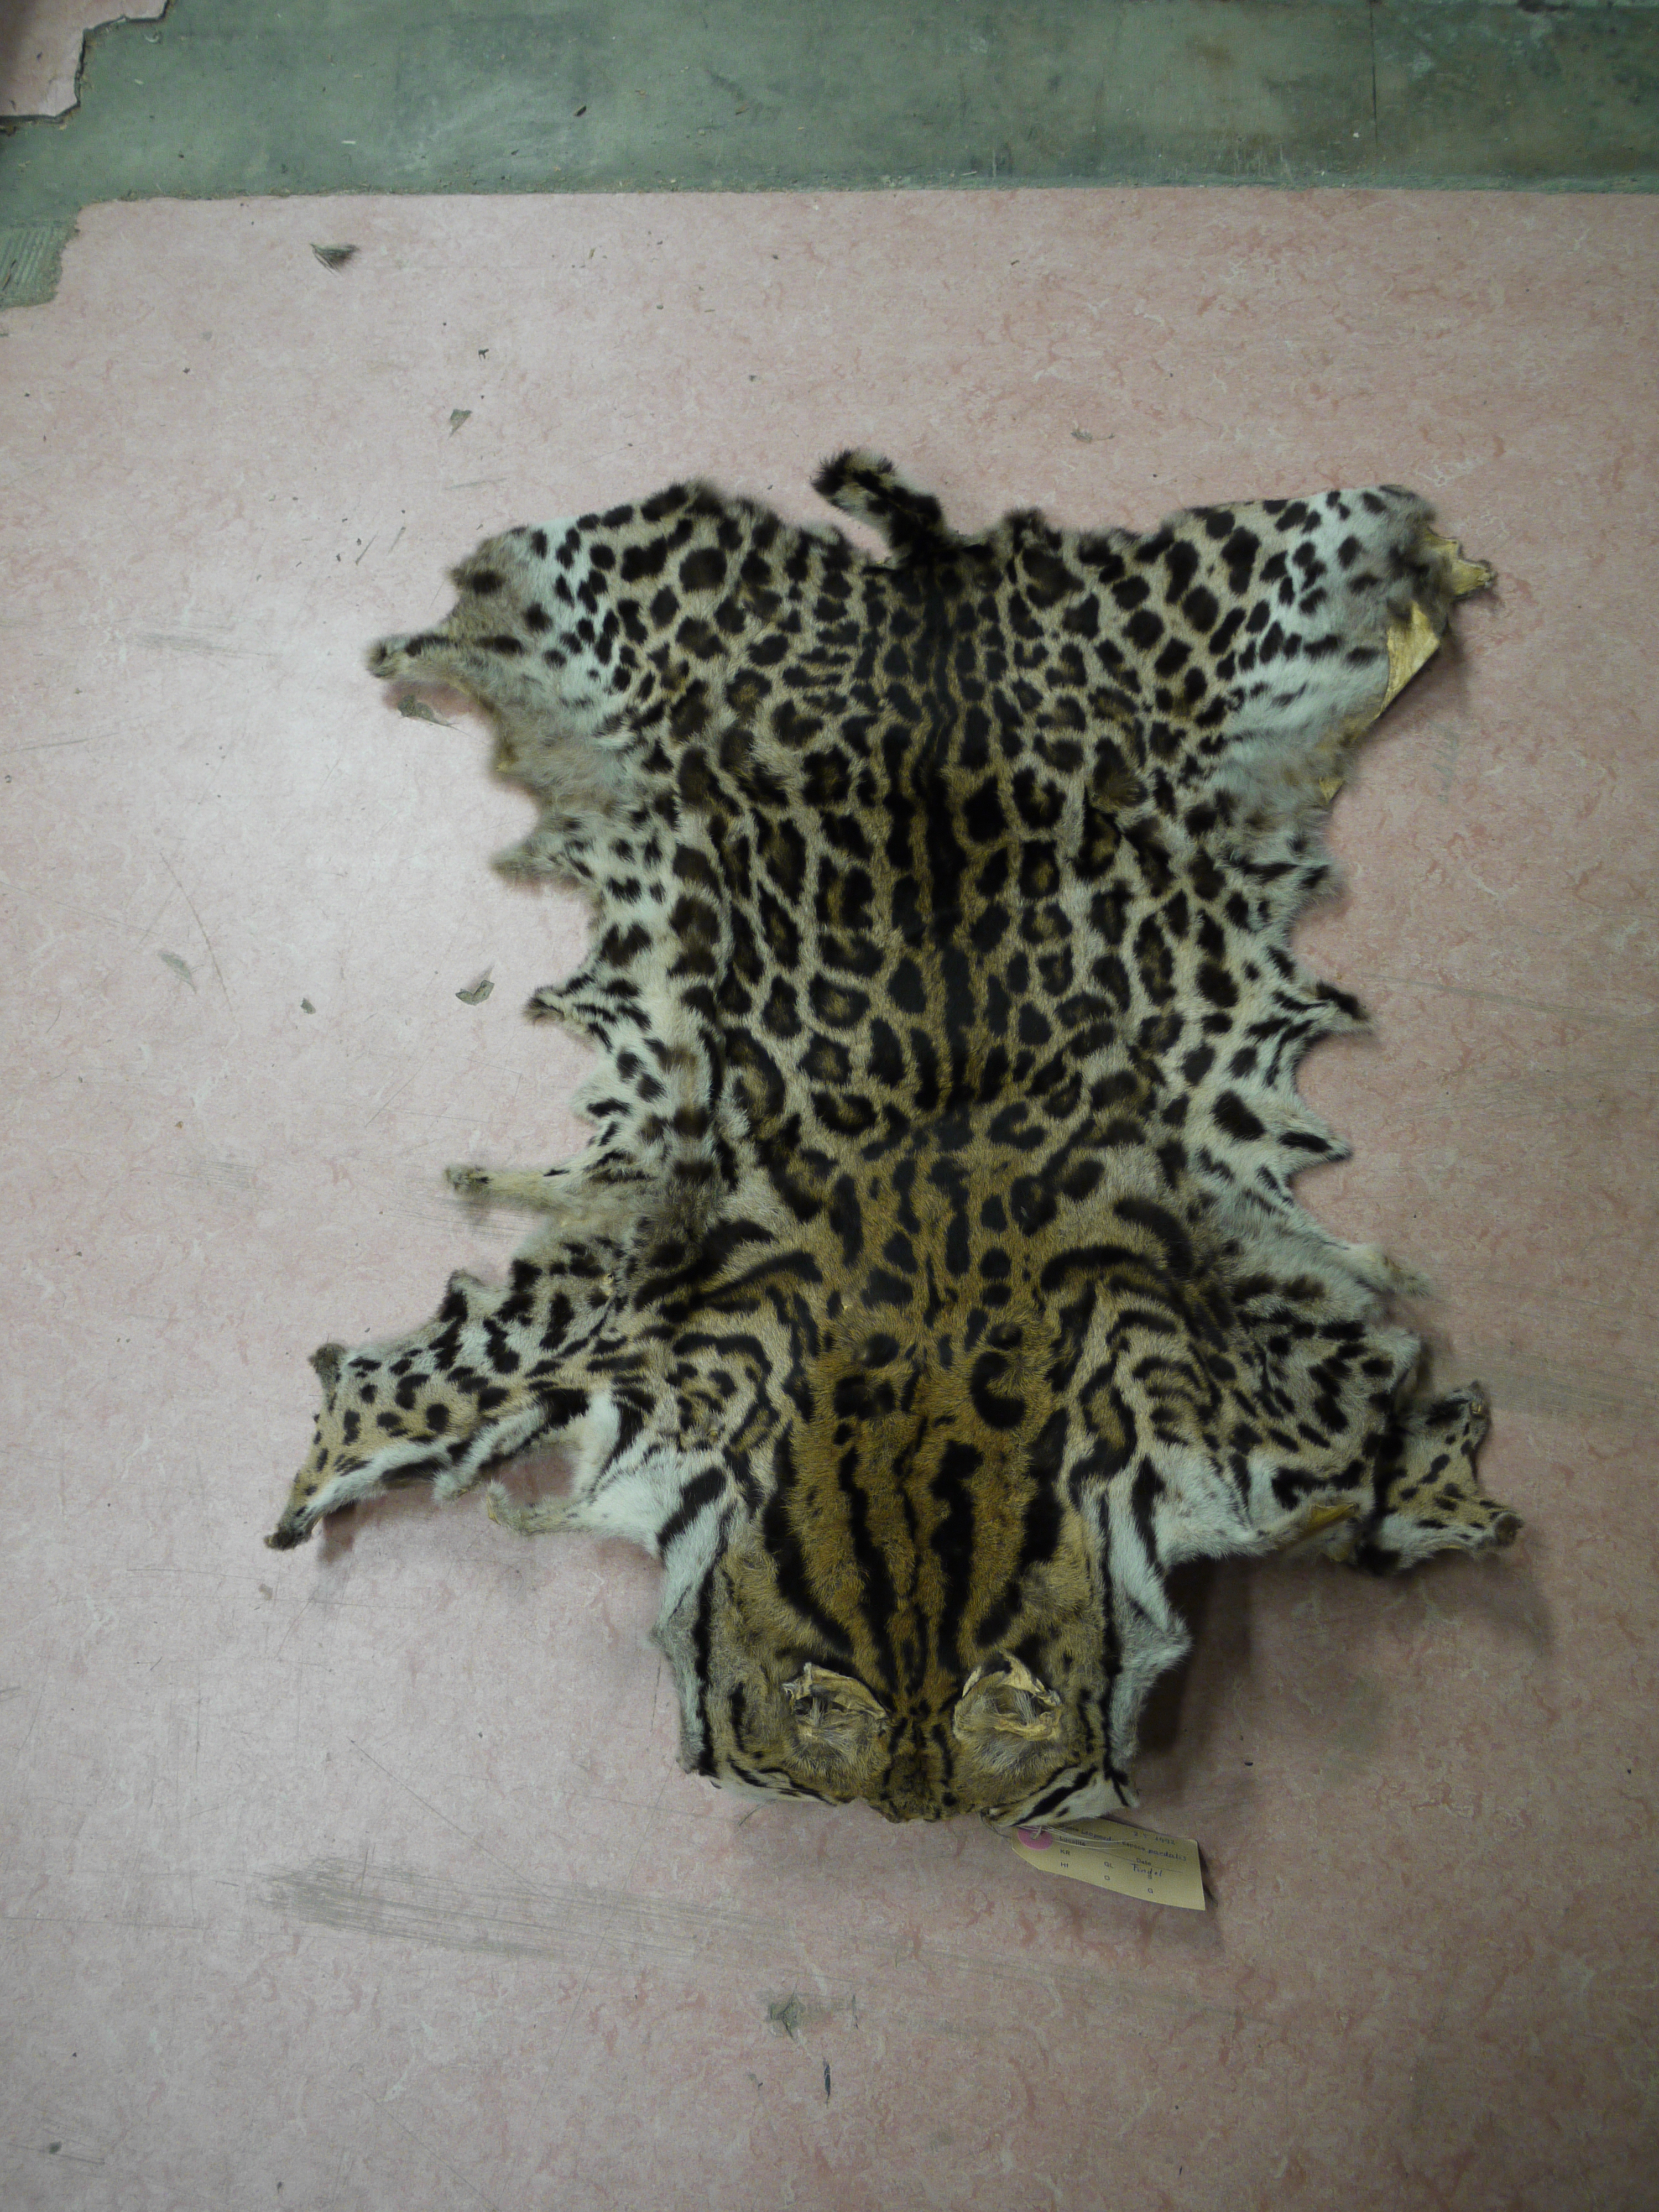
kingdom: Animalia
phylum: Chordata
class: Mammalia
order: Carnivora
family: Felidae
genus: Leopardus
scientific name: Leopardus pardalis
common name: Ocelot
